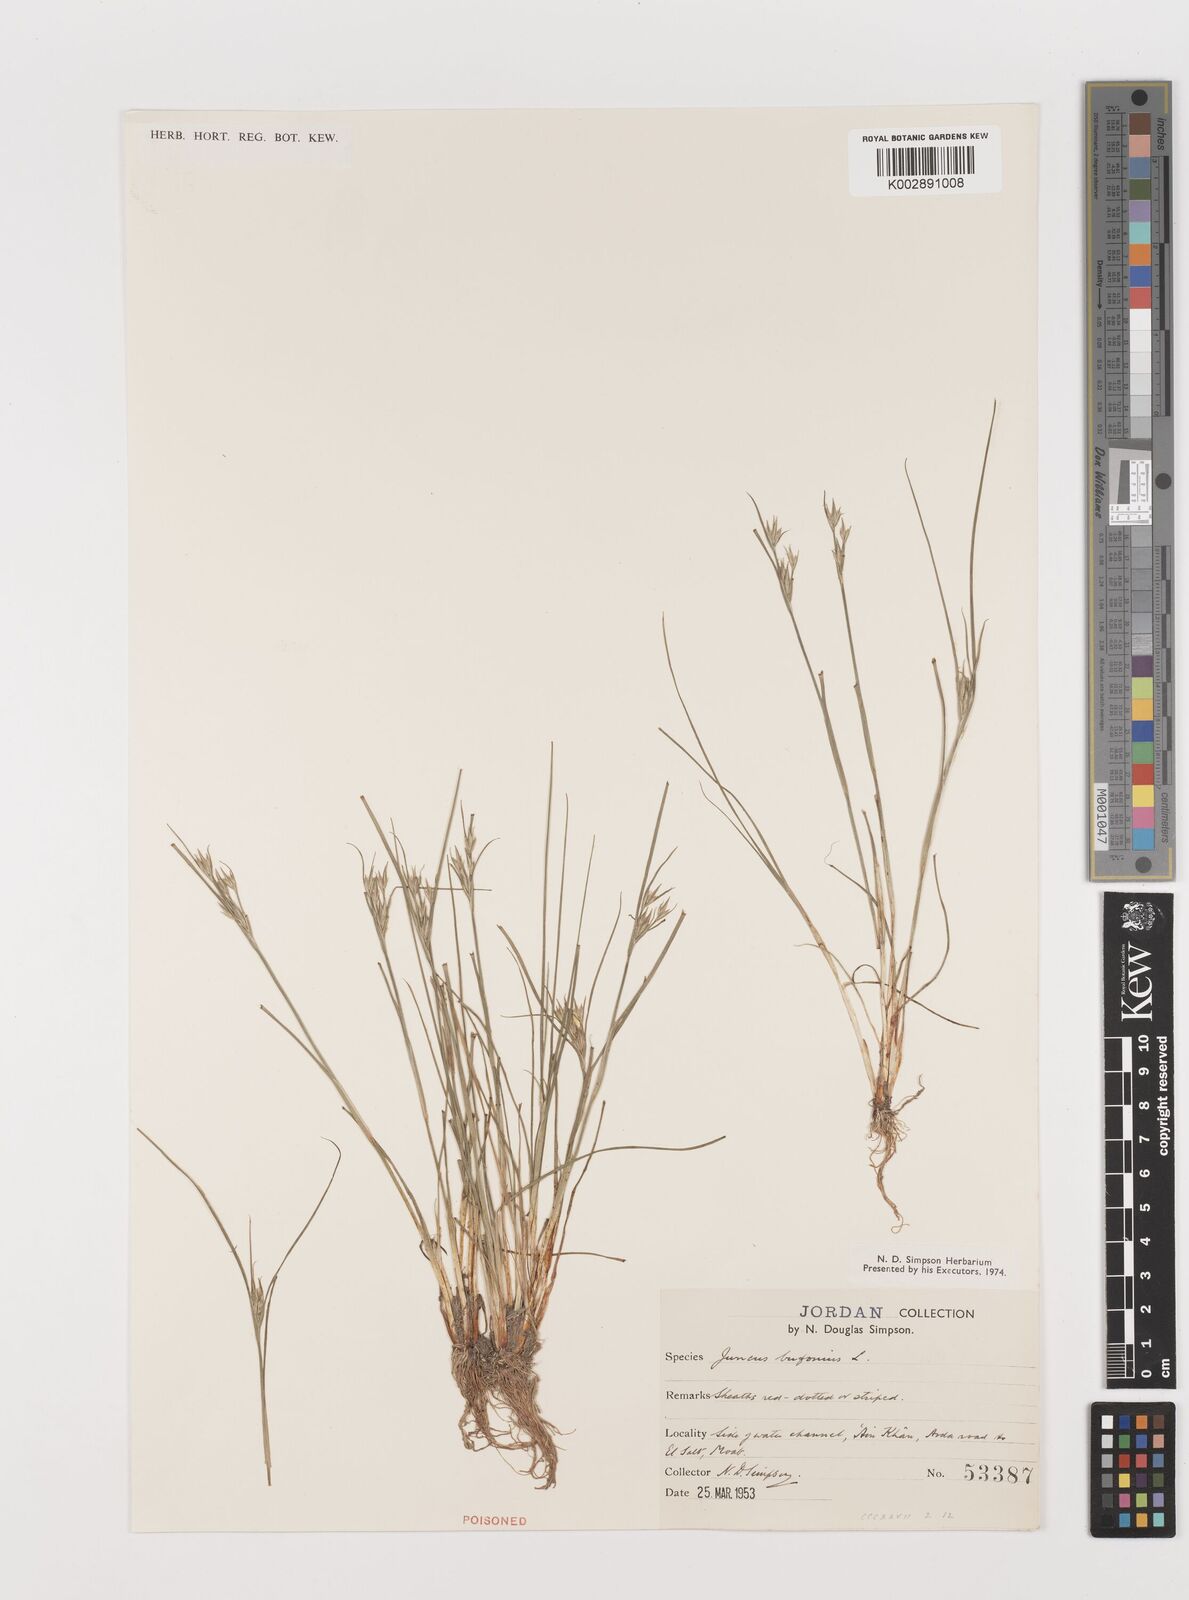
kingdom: Plantae
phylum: Tracheophyta
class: Liliopsida
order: Poales
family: Juncaceae
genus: Juncus
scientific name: Juncus bufonius
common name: Toad rush
